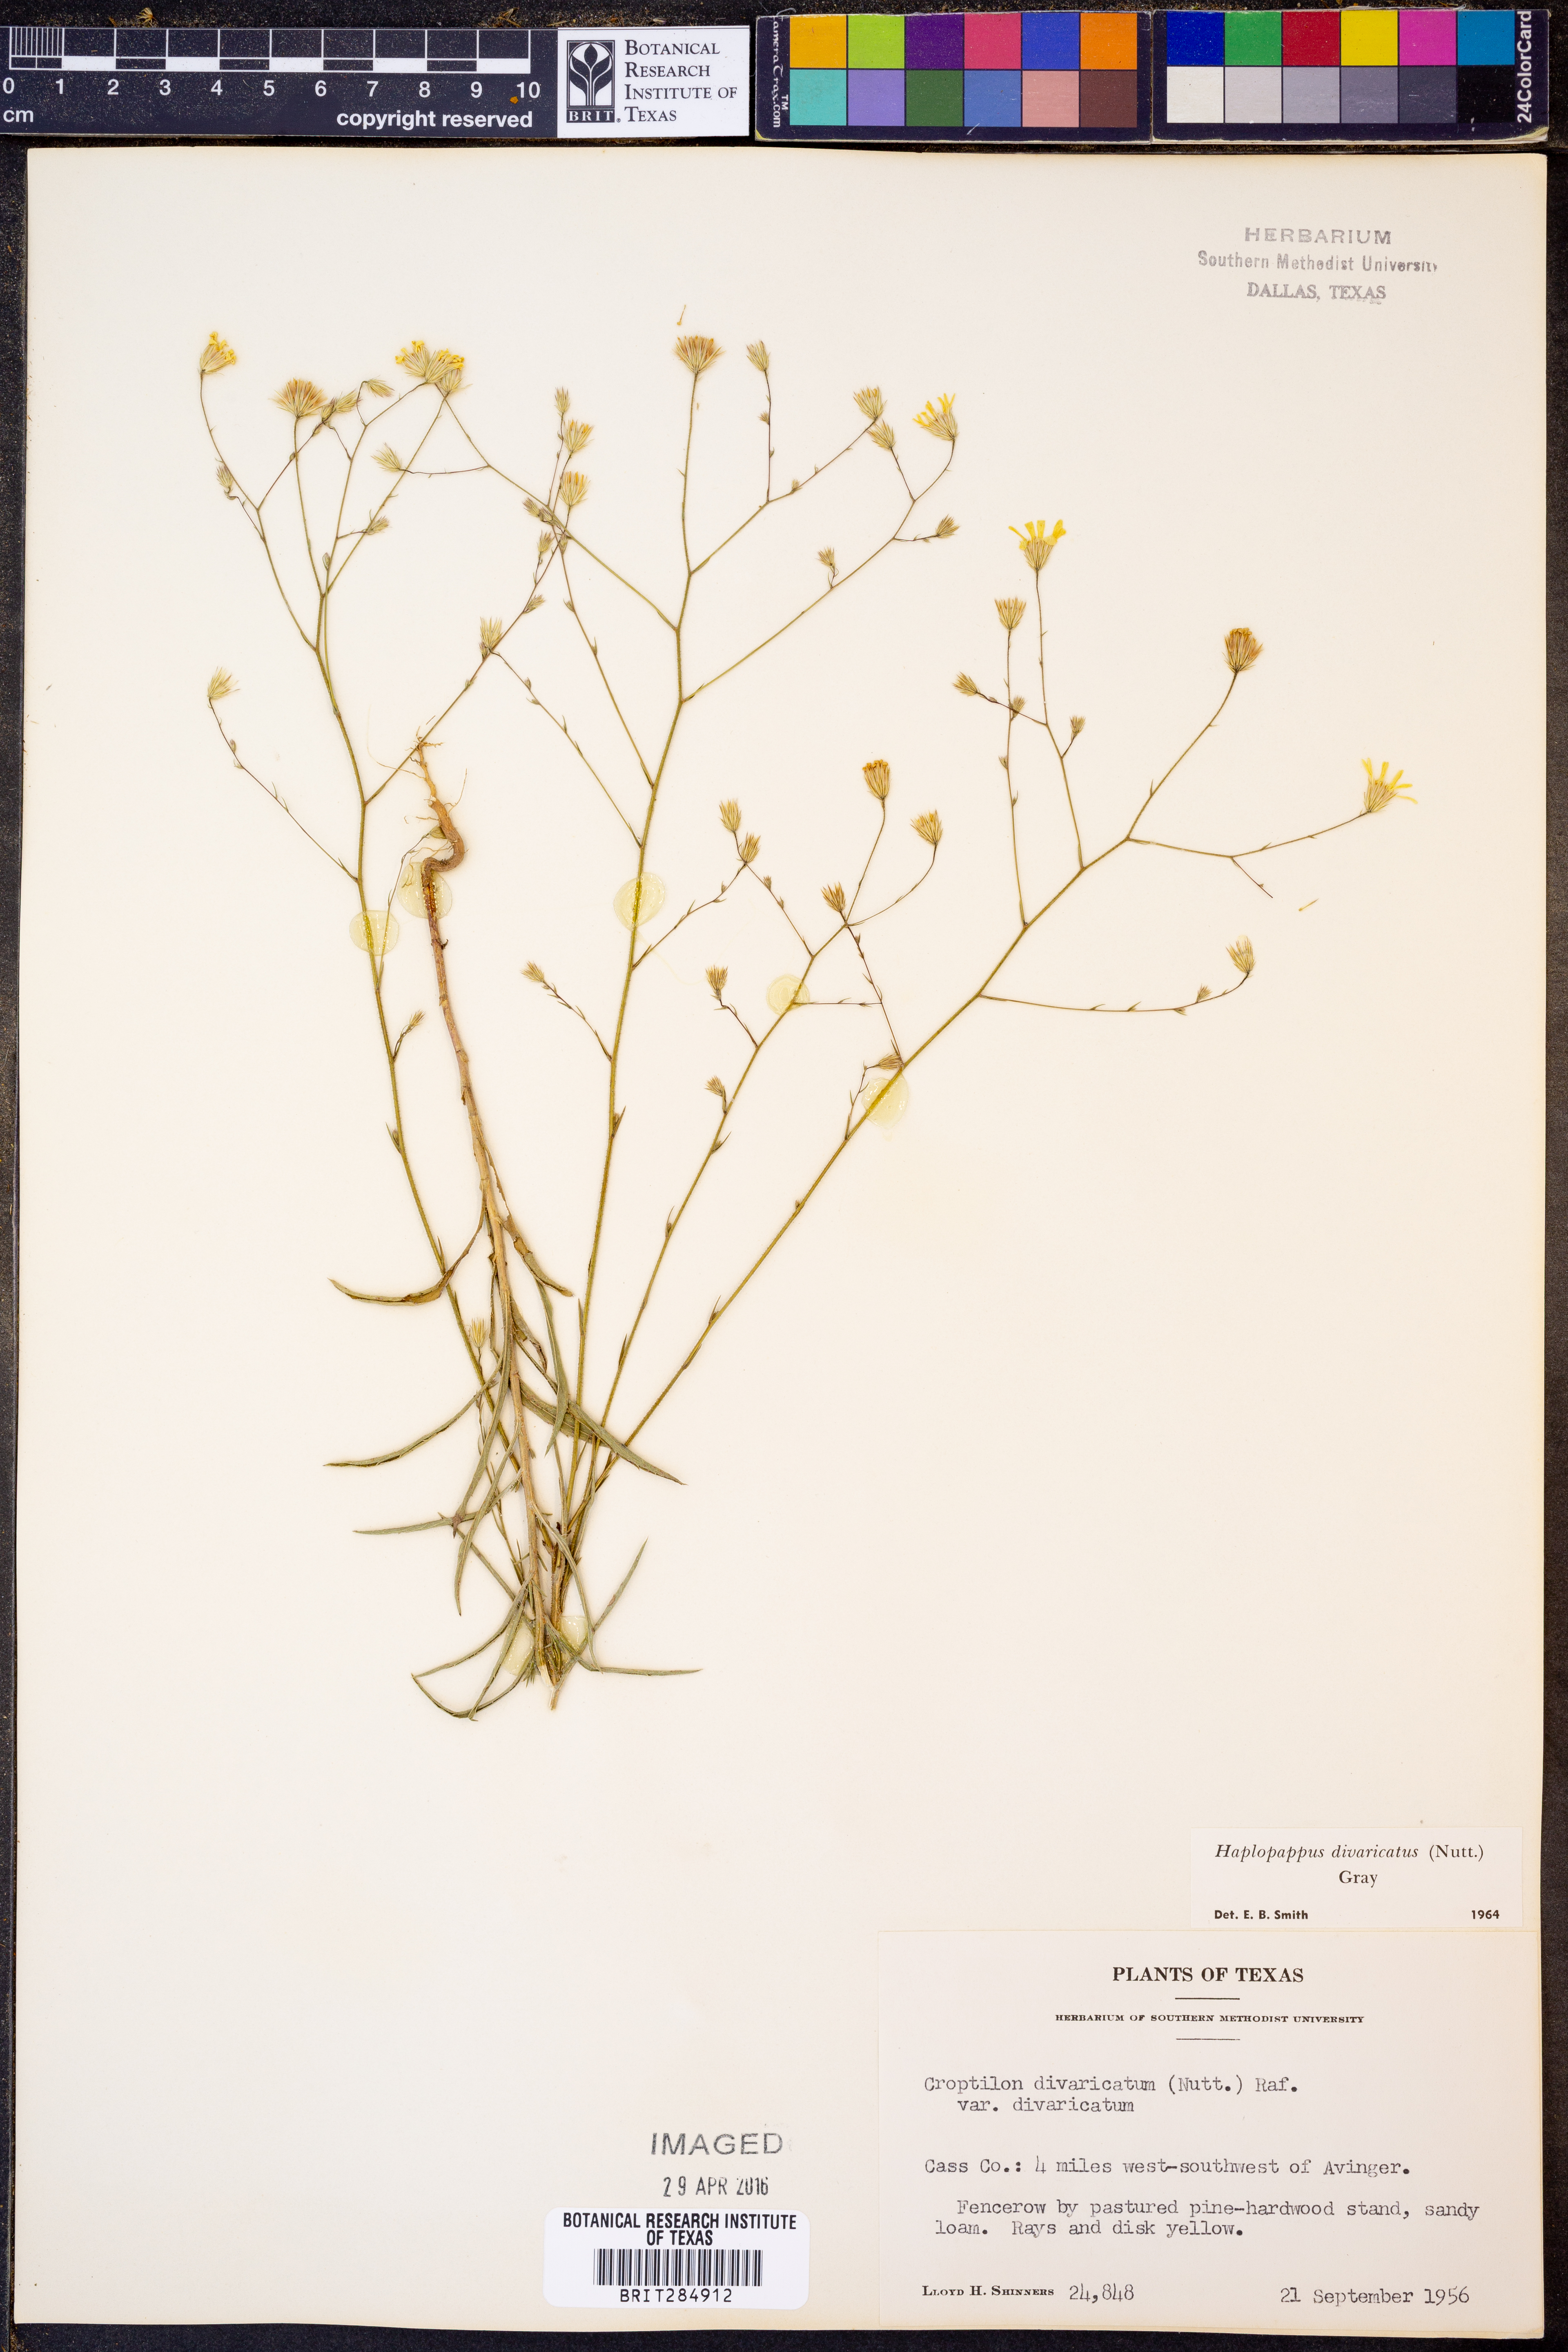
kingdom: Plantae
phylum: Tracheophyta
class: Magnoliopsida
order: Asterales
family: Asteraceae
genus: Croptilon
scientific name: Croptilon divaricatum
